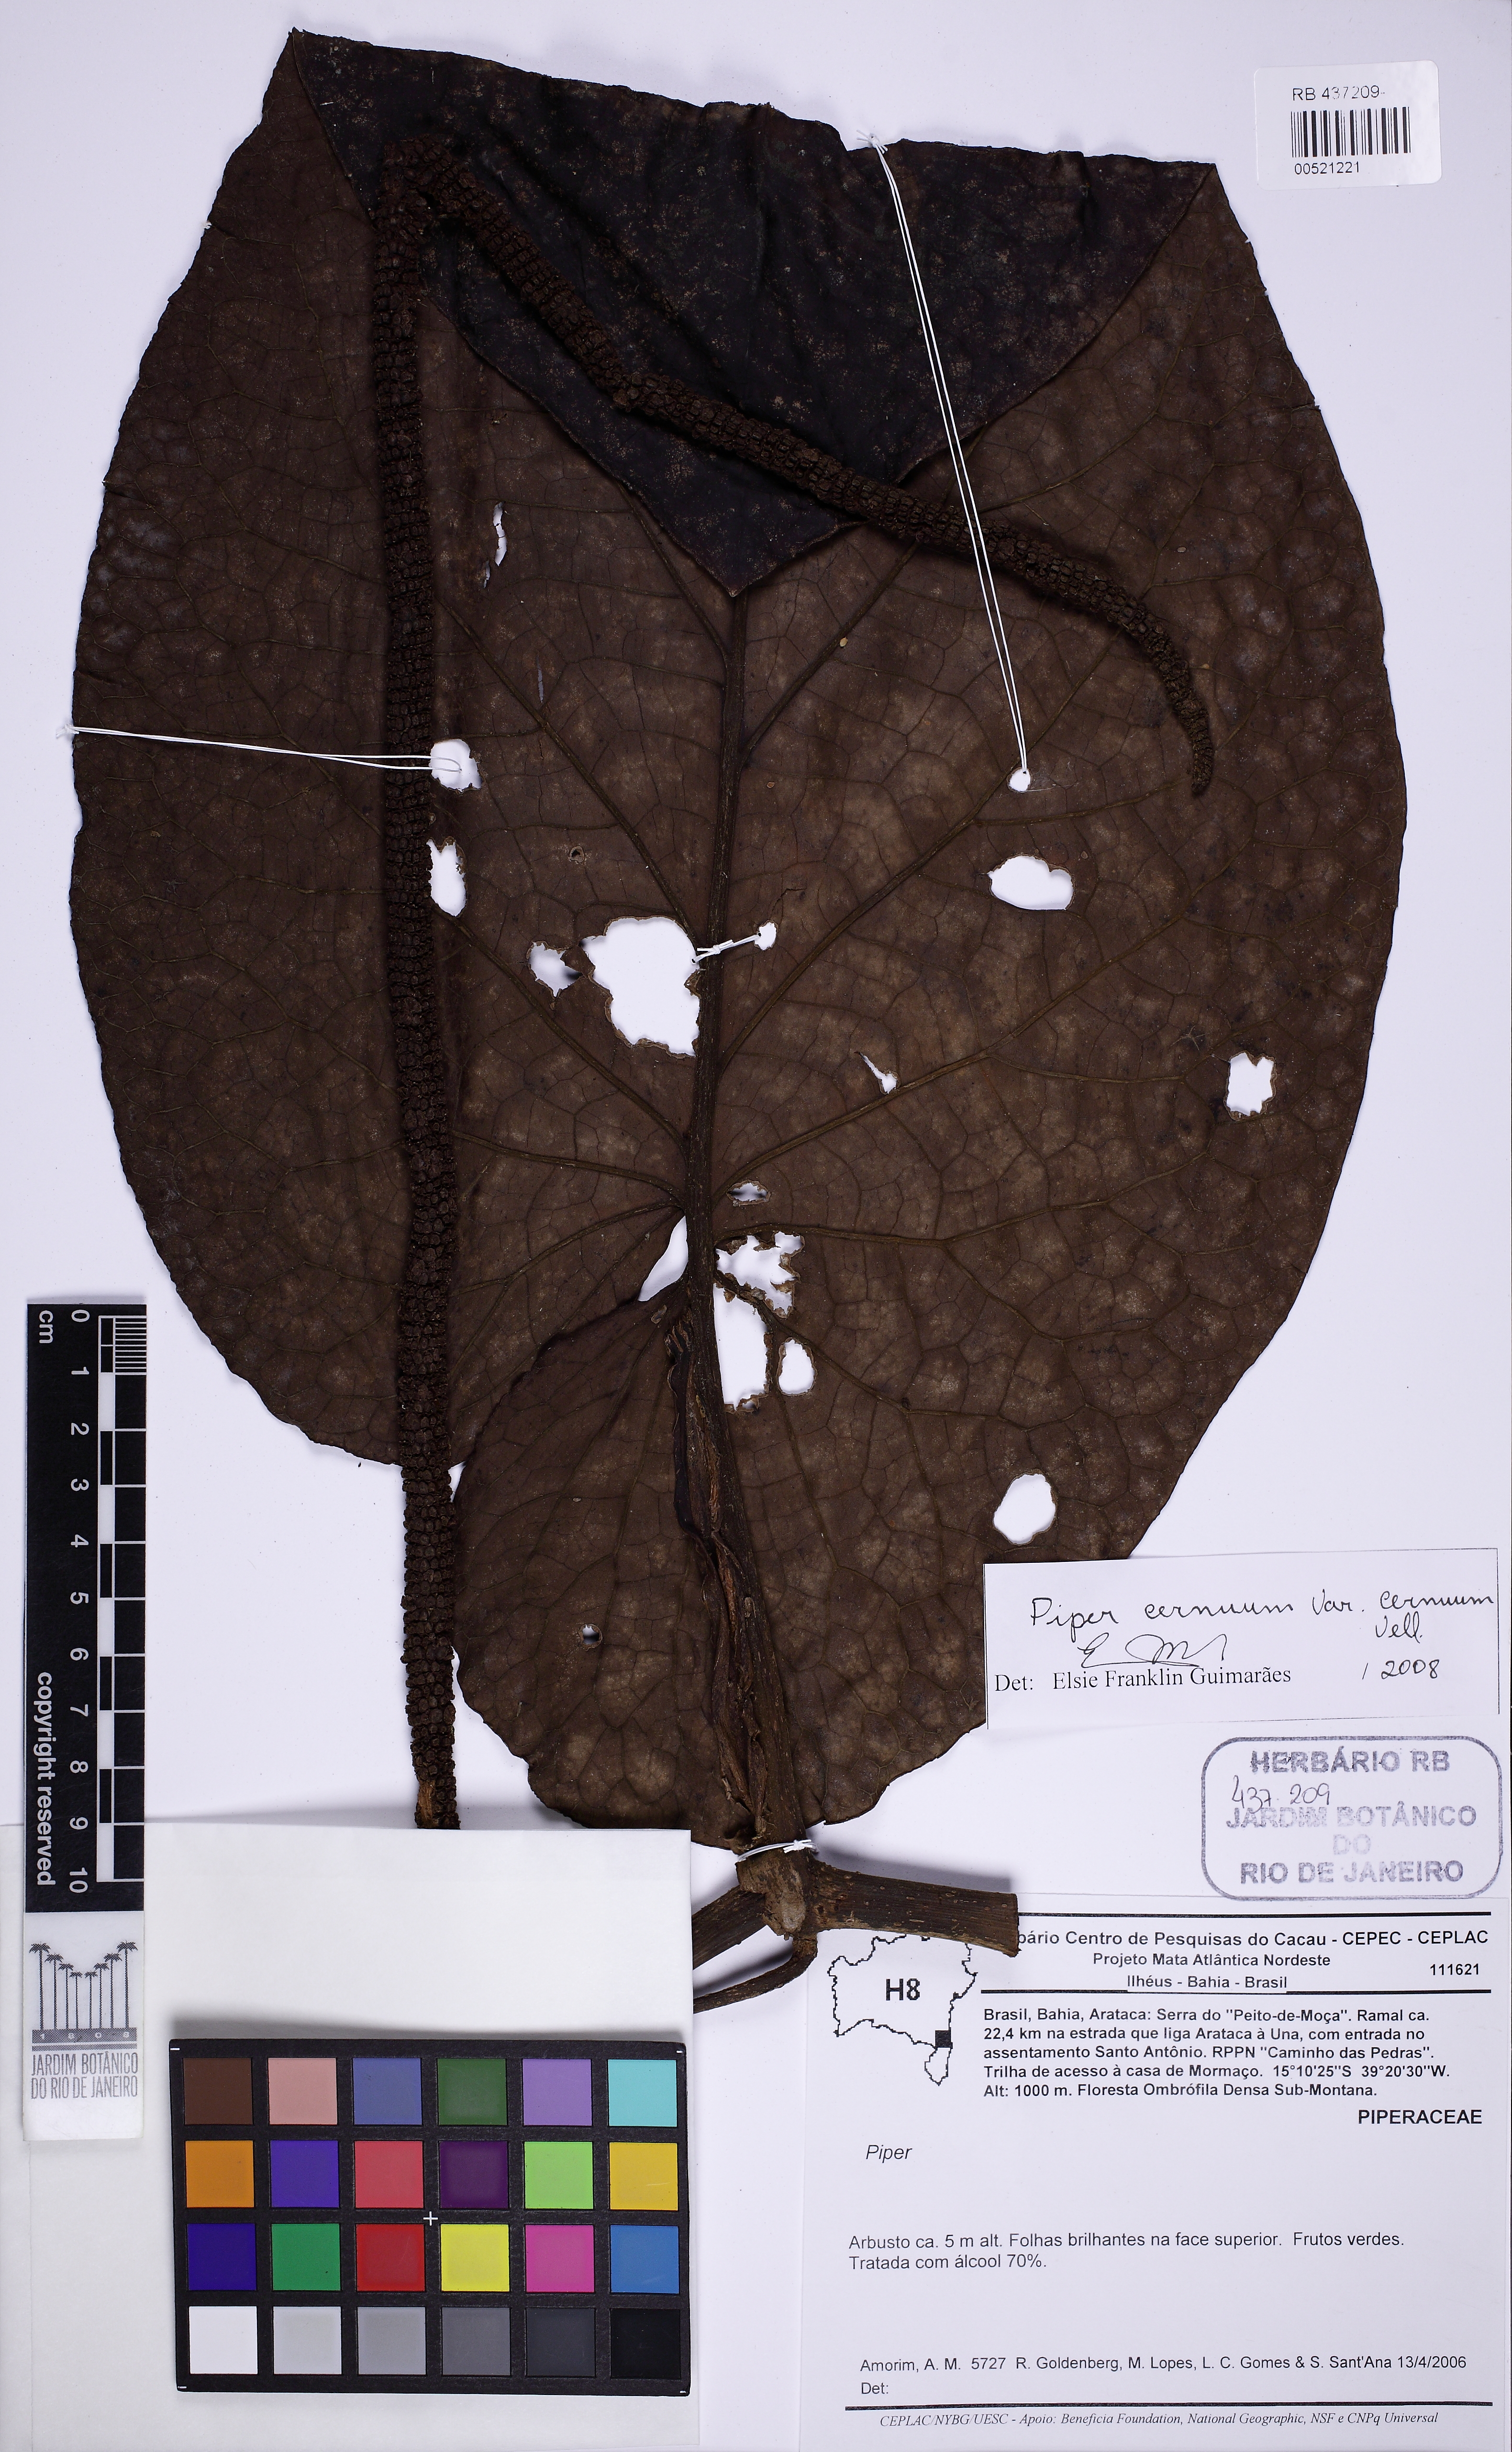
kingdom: Plantae
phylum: Tracheophyta
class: Magnoliopsida
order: Piperales
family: Piperaceae
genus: Piper
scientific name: Piper cernuum
